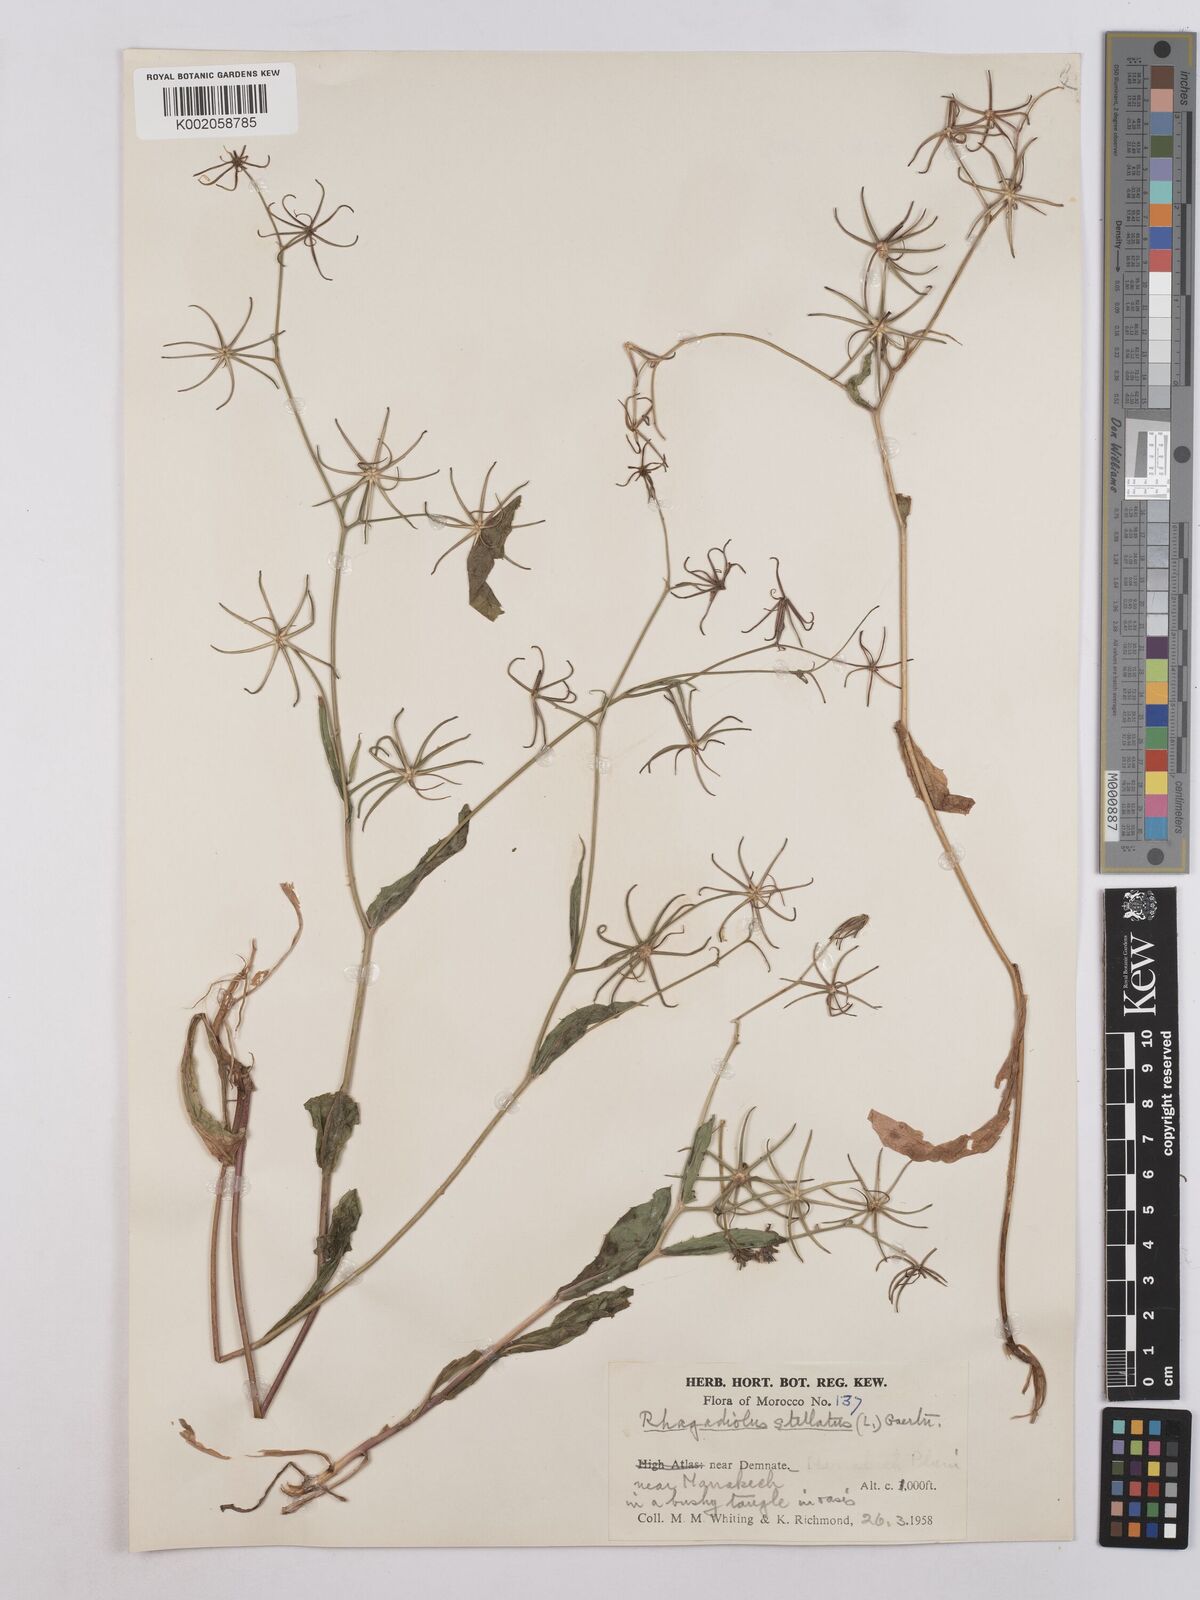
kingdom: Plantae
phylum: Tracheophyta
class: Magnoliopsida
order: Asterales
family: Asteraceae
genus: Rhagadiolus
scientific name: Rhagadiolus stellatus
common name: Star hawkbit
